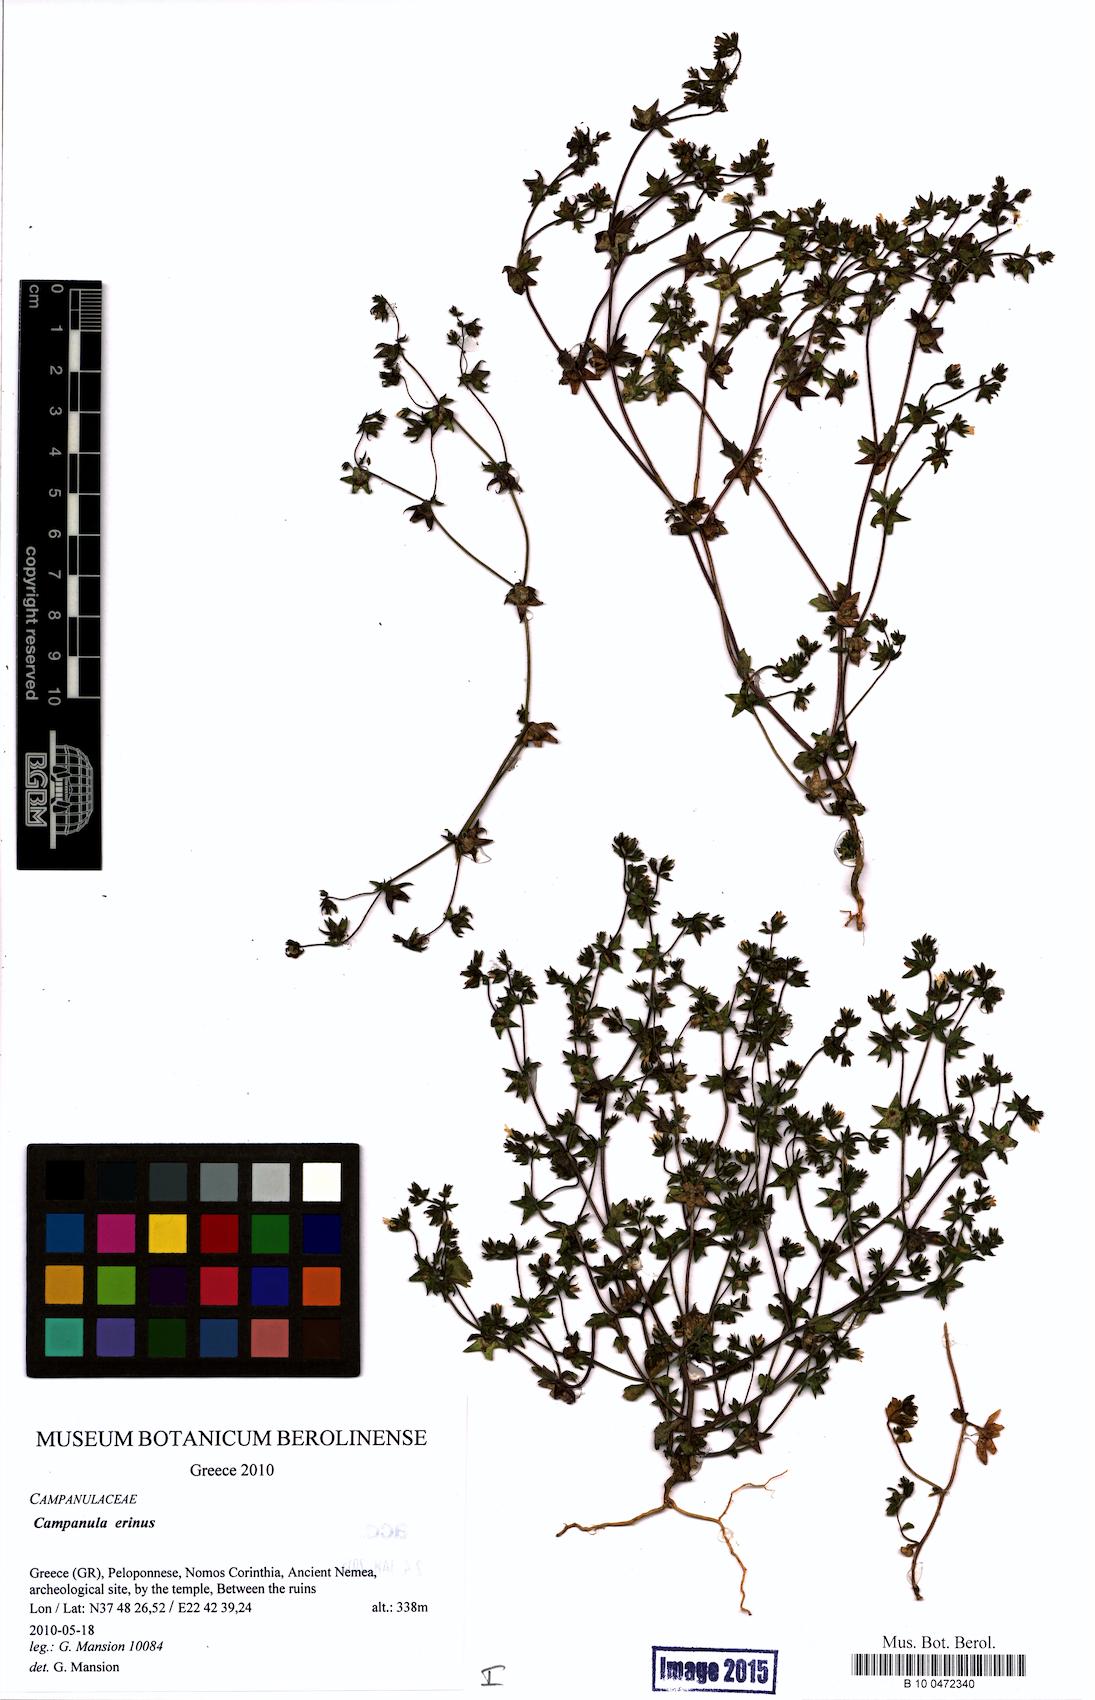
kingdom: Plantae
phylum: Tracheophyta
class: Magnoliopsida
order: Asterales
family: Campanulaceae
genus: Campanula
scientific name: Campanula erinus
